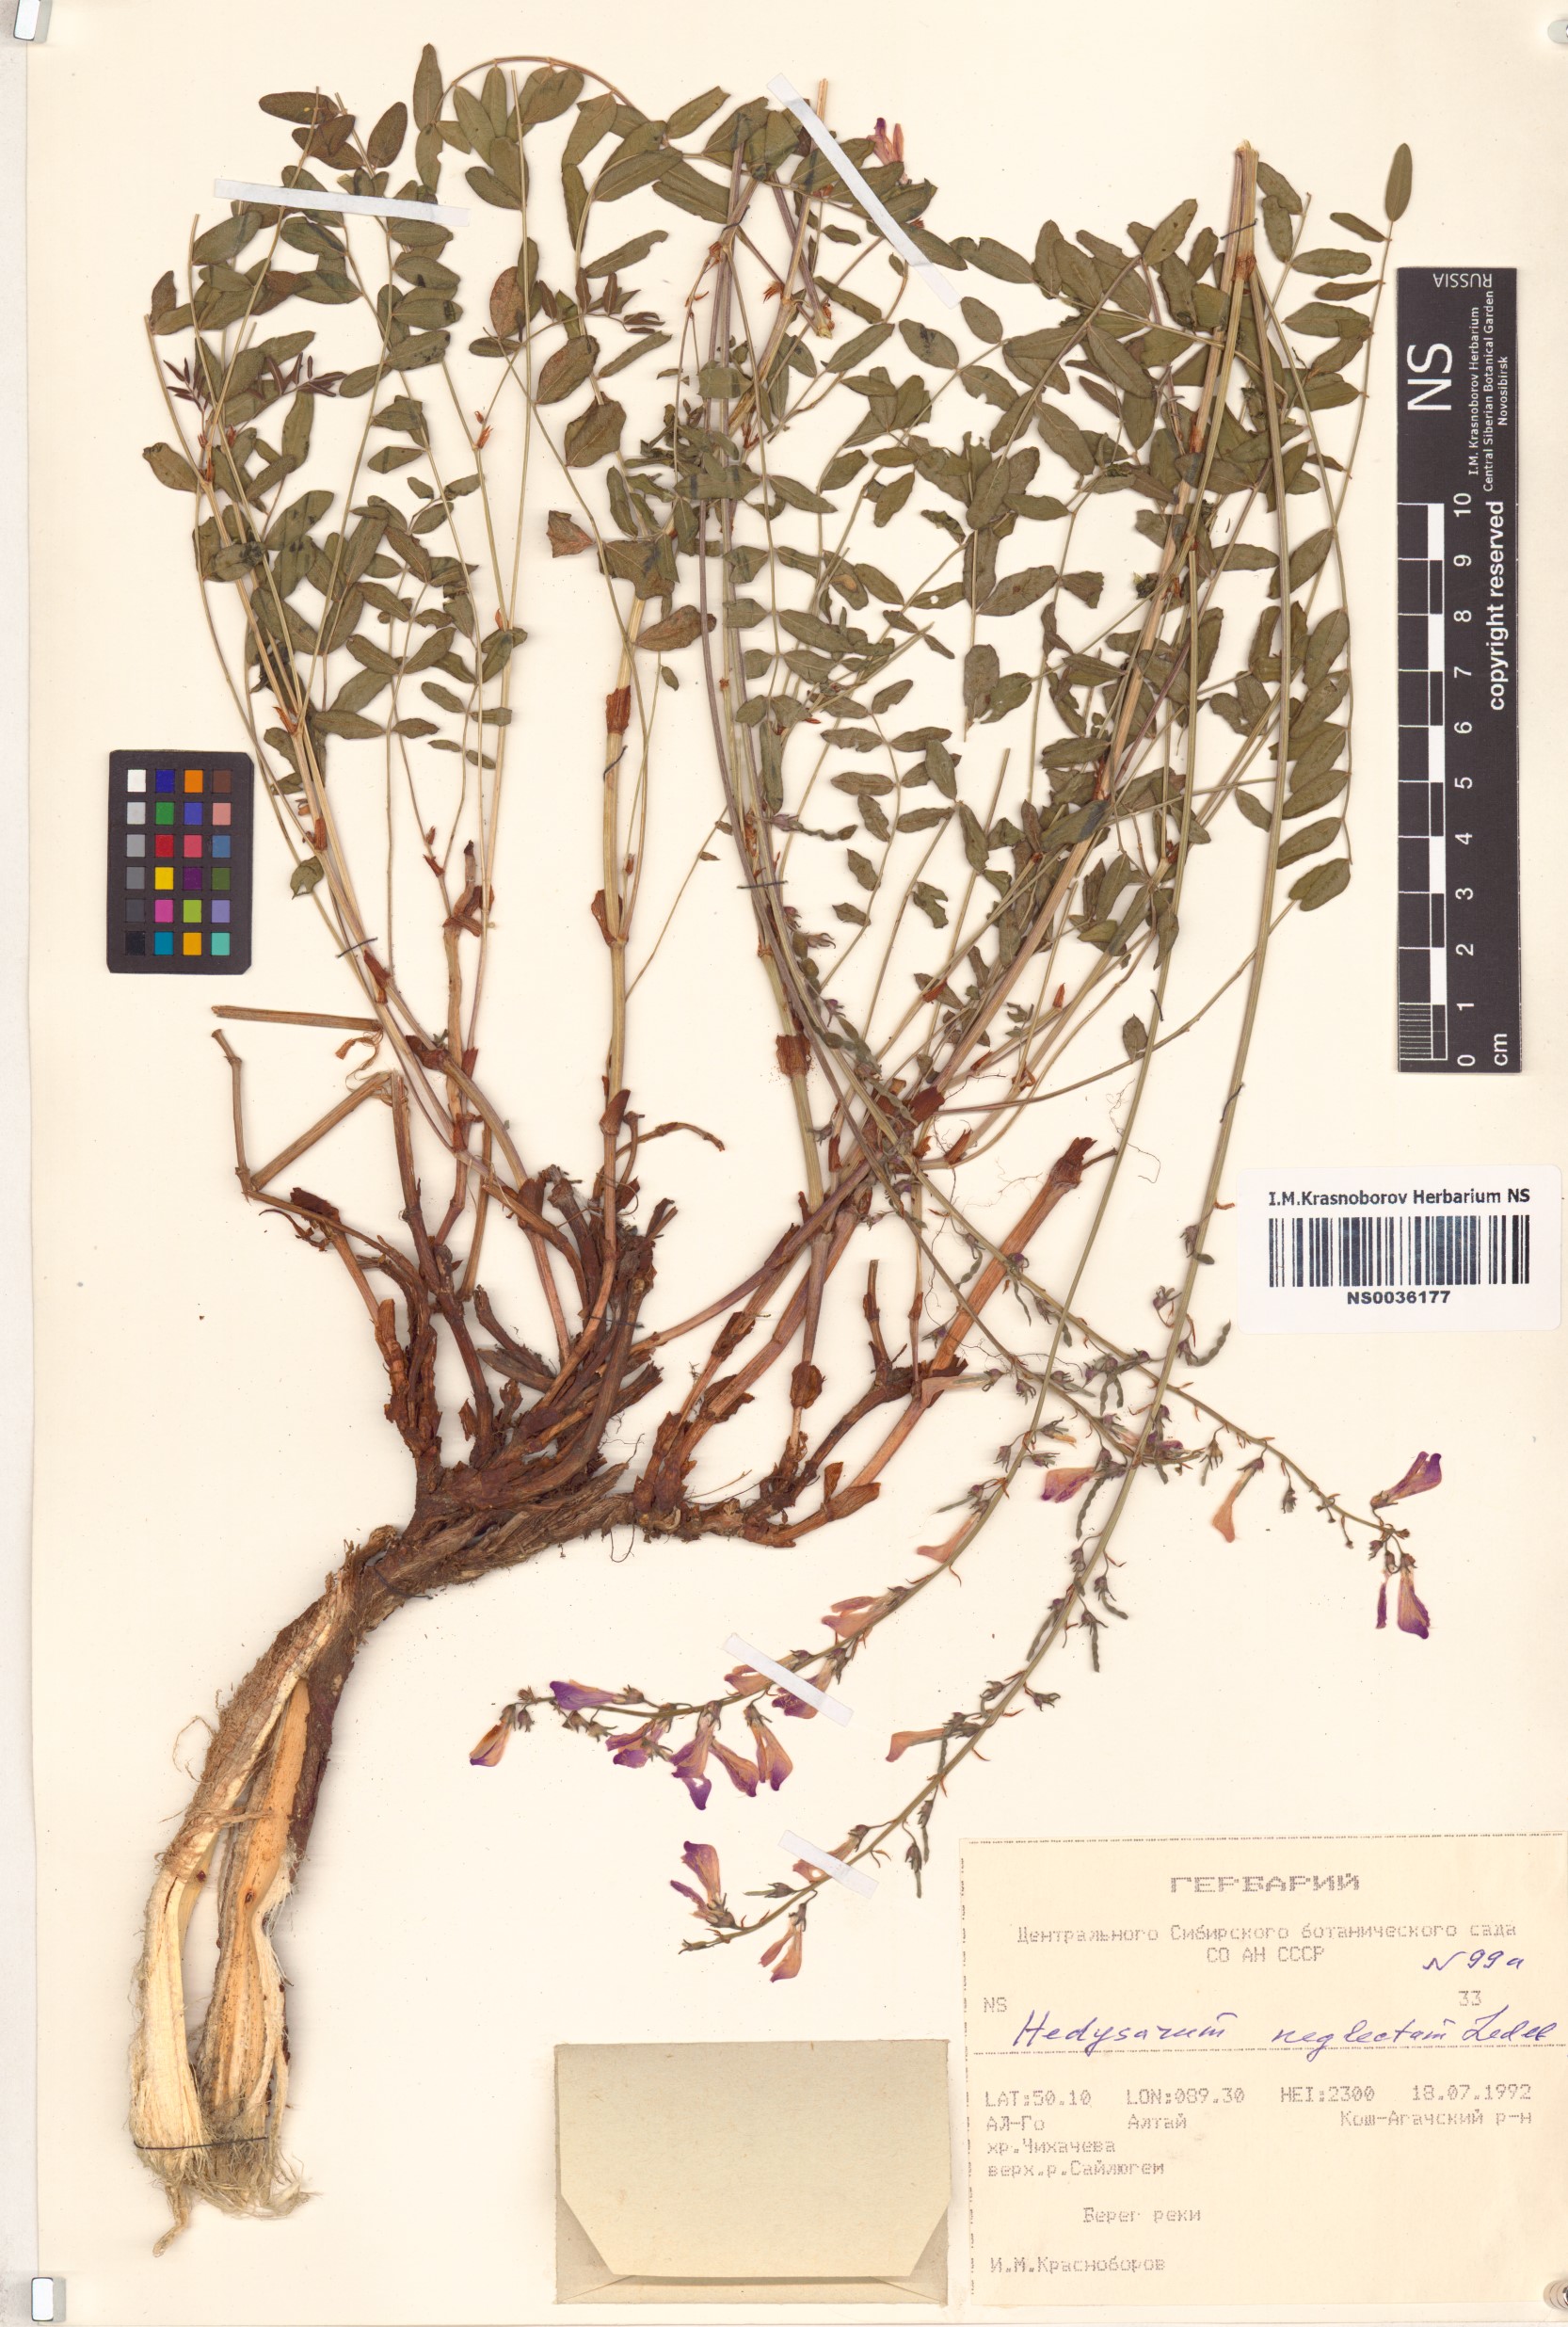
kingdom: Plantae
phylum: Tracheophyta
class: Magnoliopsida
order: Fabales
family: Fabaceae
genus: Hedysarum
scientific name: Hedysarum neglectum
